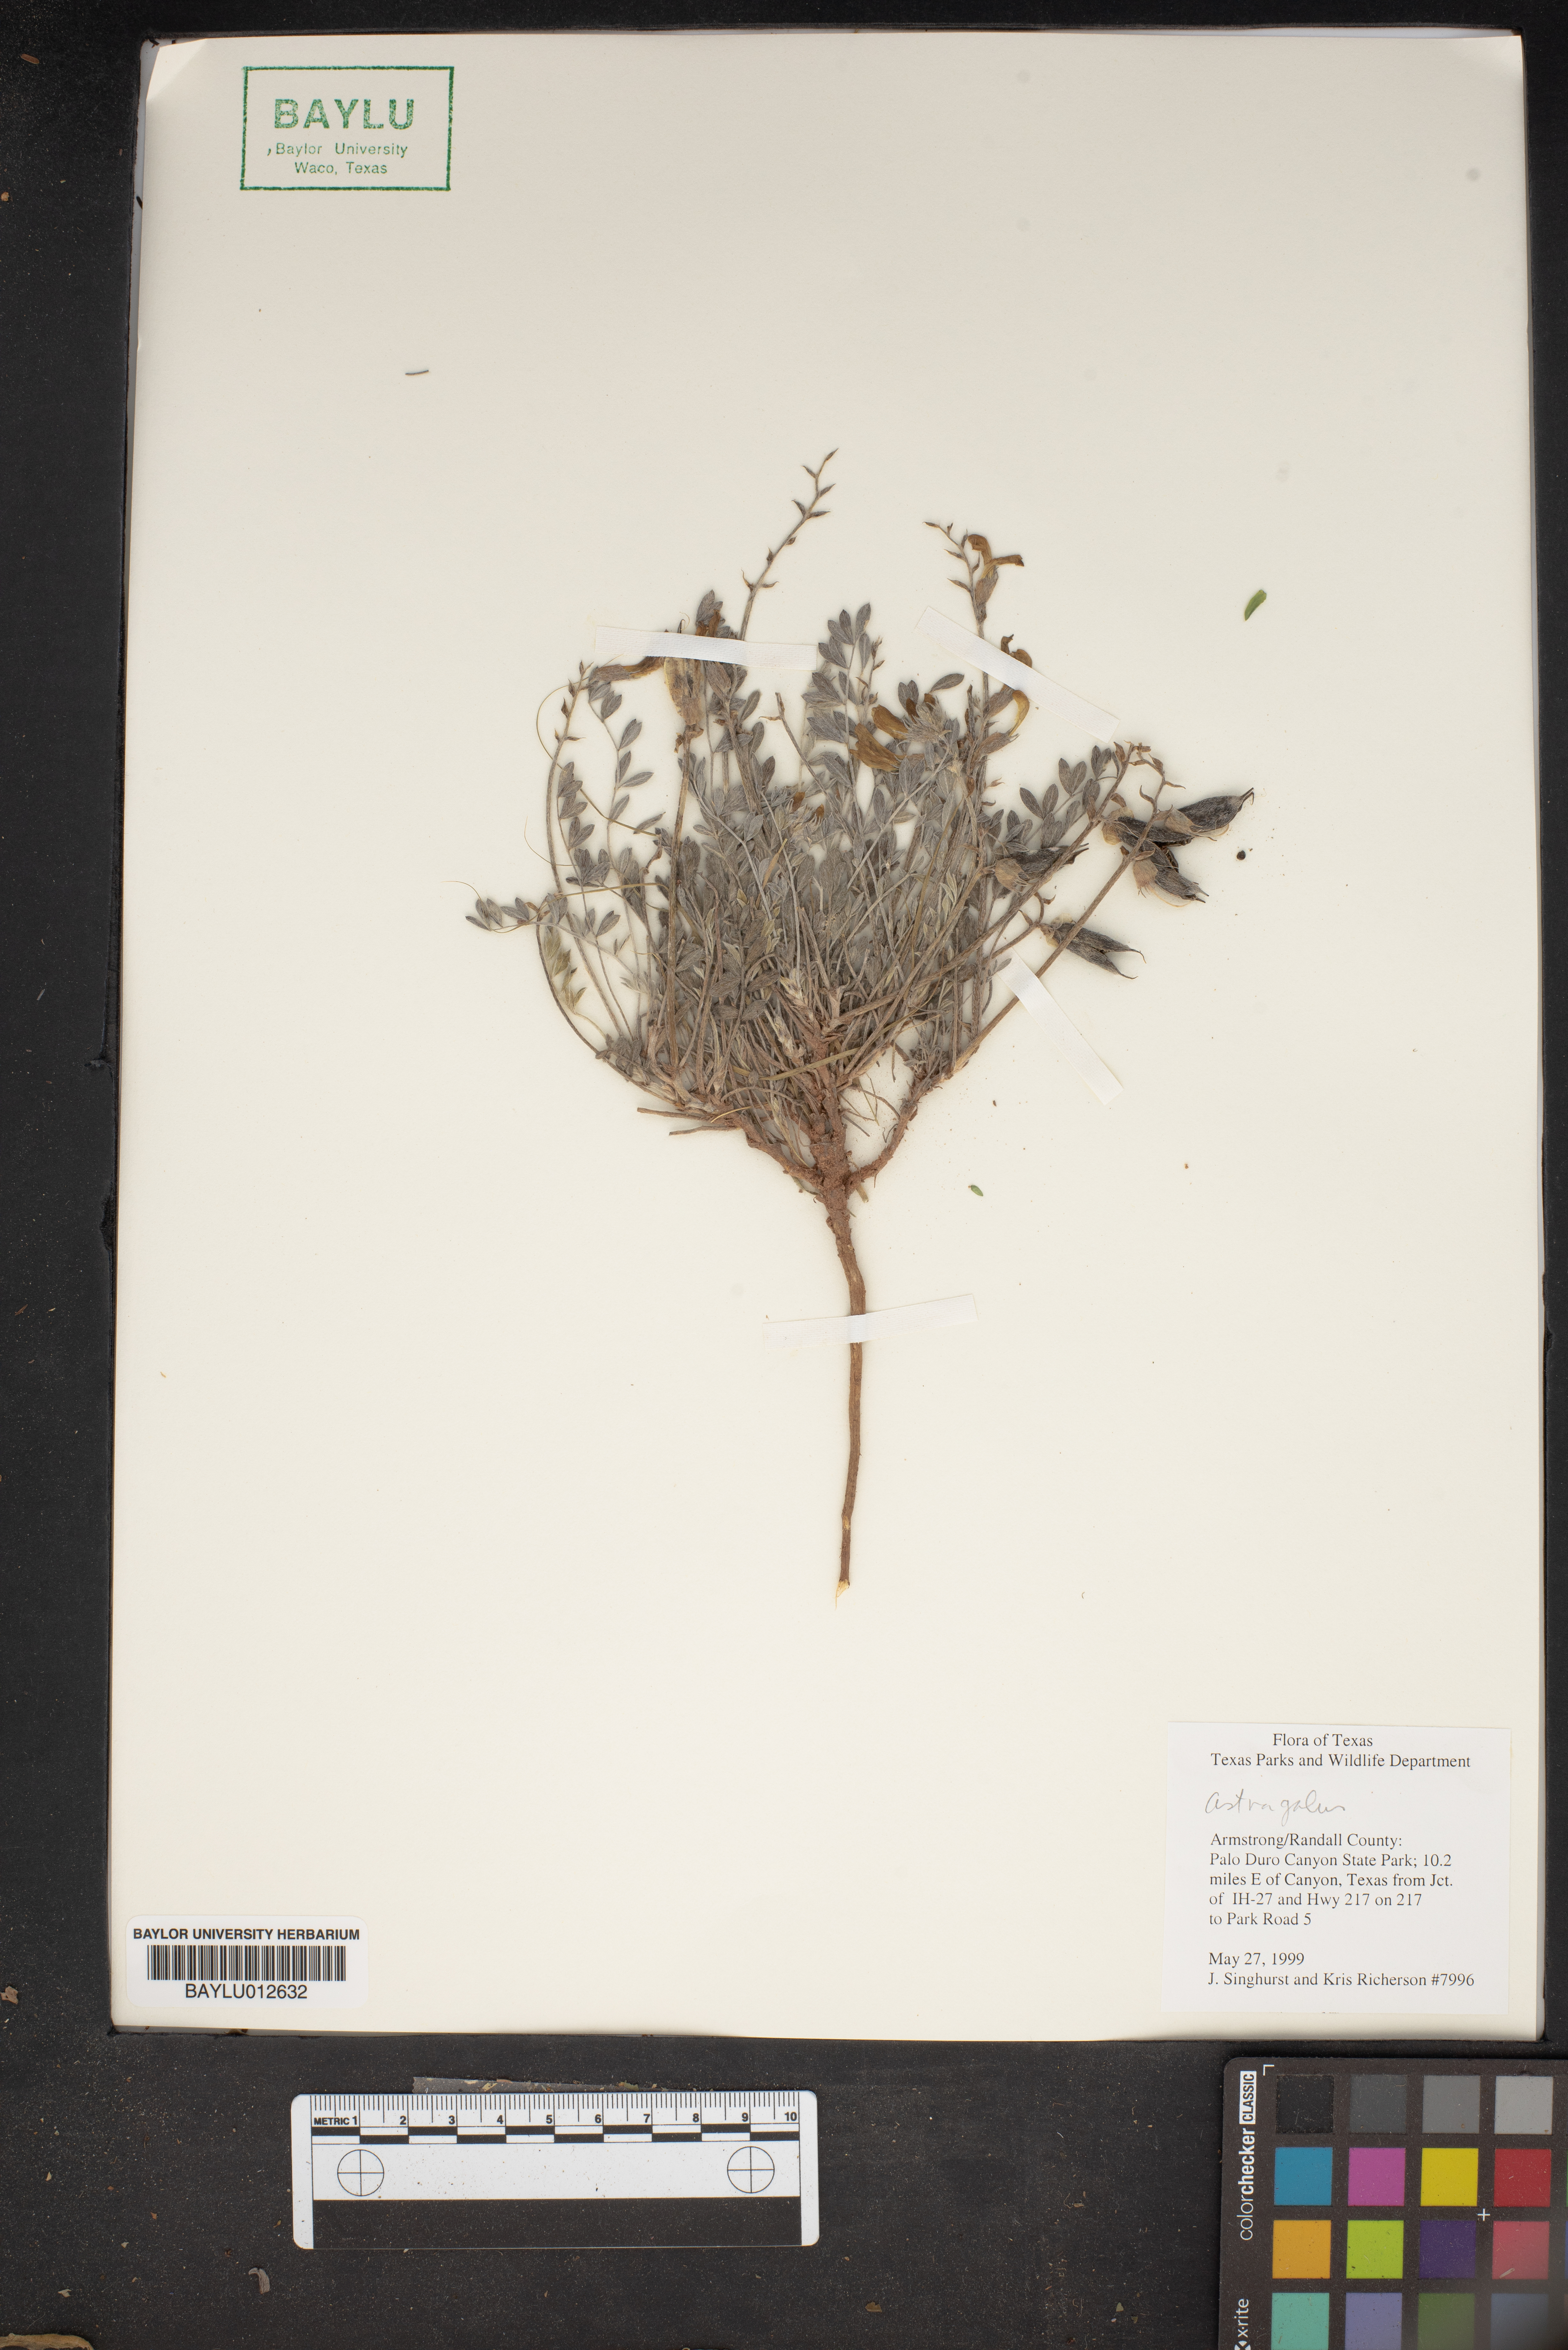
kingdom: Plantae
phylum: Tracheophyta
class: Magnoliopsida
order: Fabales
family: Fabaceae
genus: Astragalus
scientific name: Astragalus
